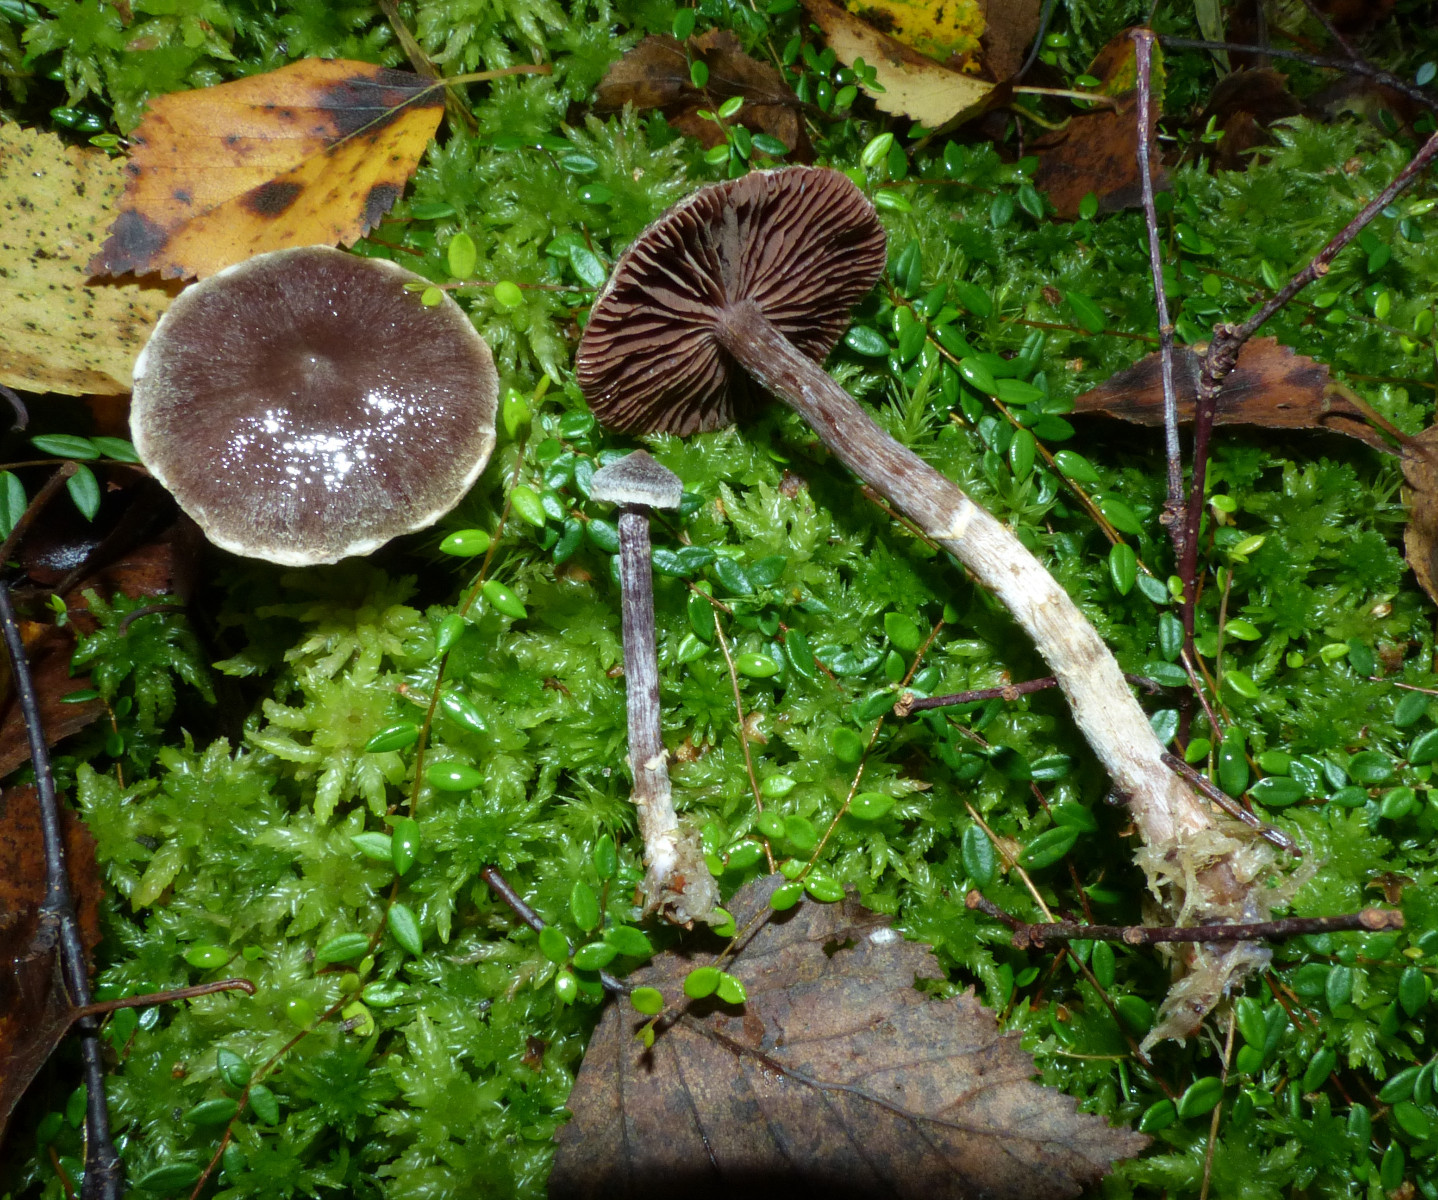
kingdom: Fungi
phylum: Basidiomycota
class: Agaricomycetes
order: Agaricales
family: Cortinariaceae
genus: Cortinarius
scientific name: Cortinarius flexipes
